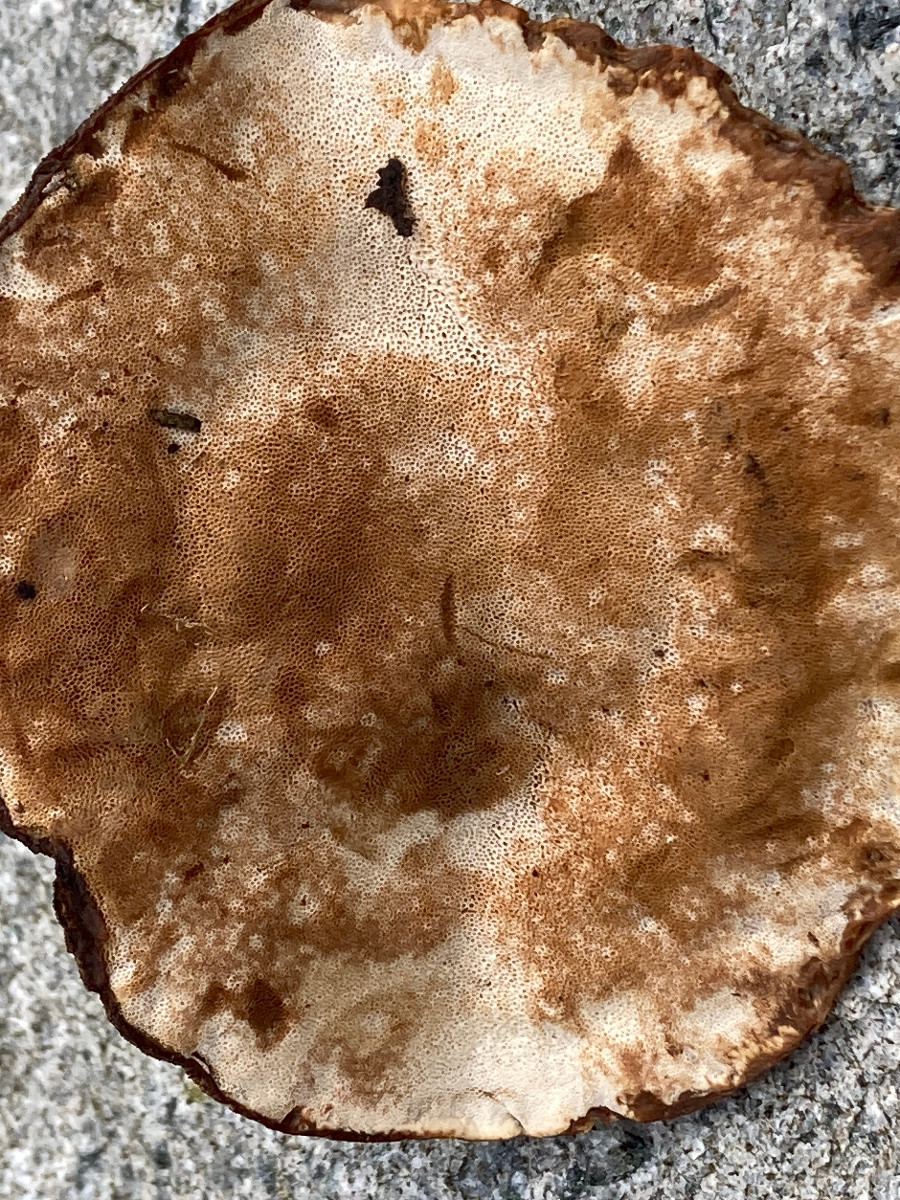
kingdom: Fungi
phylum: Basidiomycota
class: Agaricomycetes
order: Polyporales
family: Ischnodermataceae
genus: Ischnoderma
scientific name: Ischnoderma benzoinum
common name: gran-tjæreporesvamp
